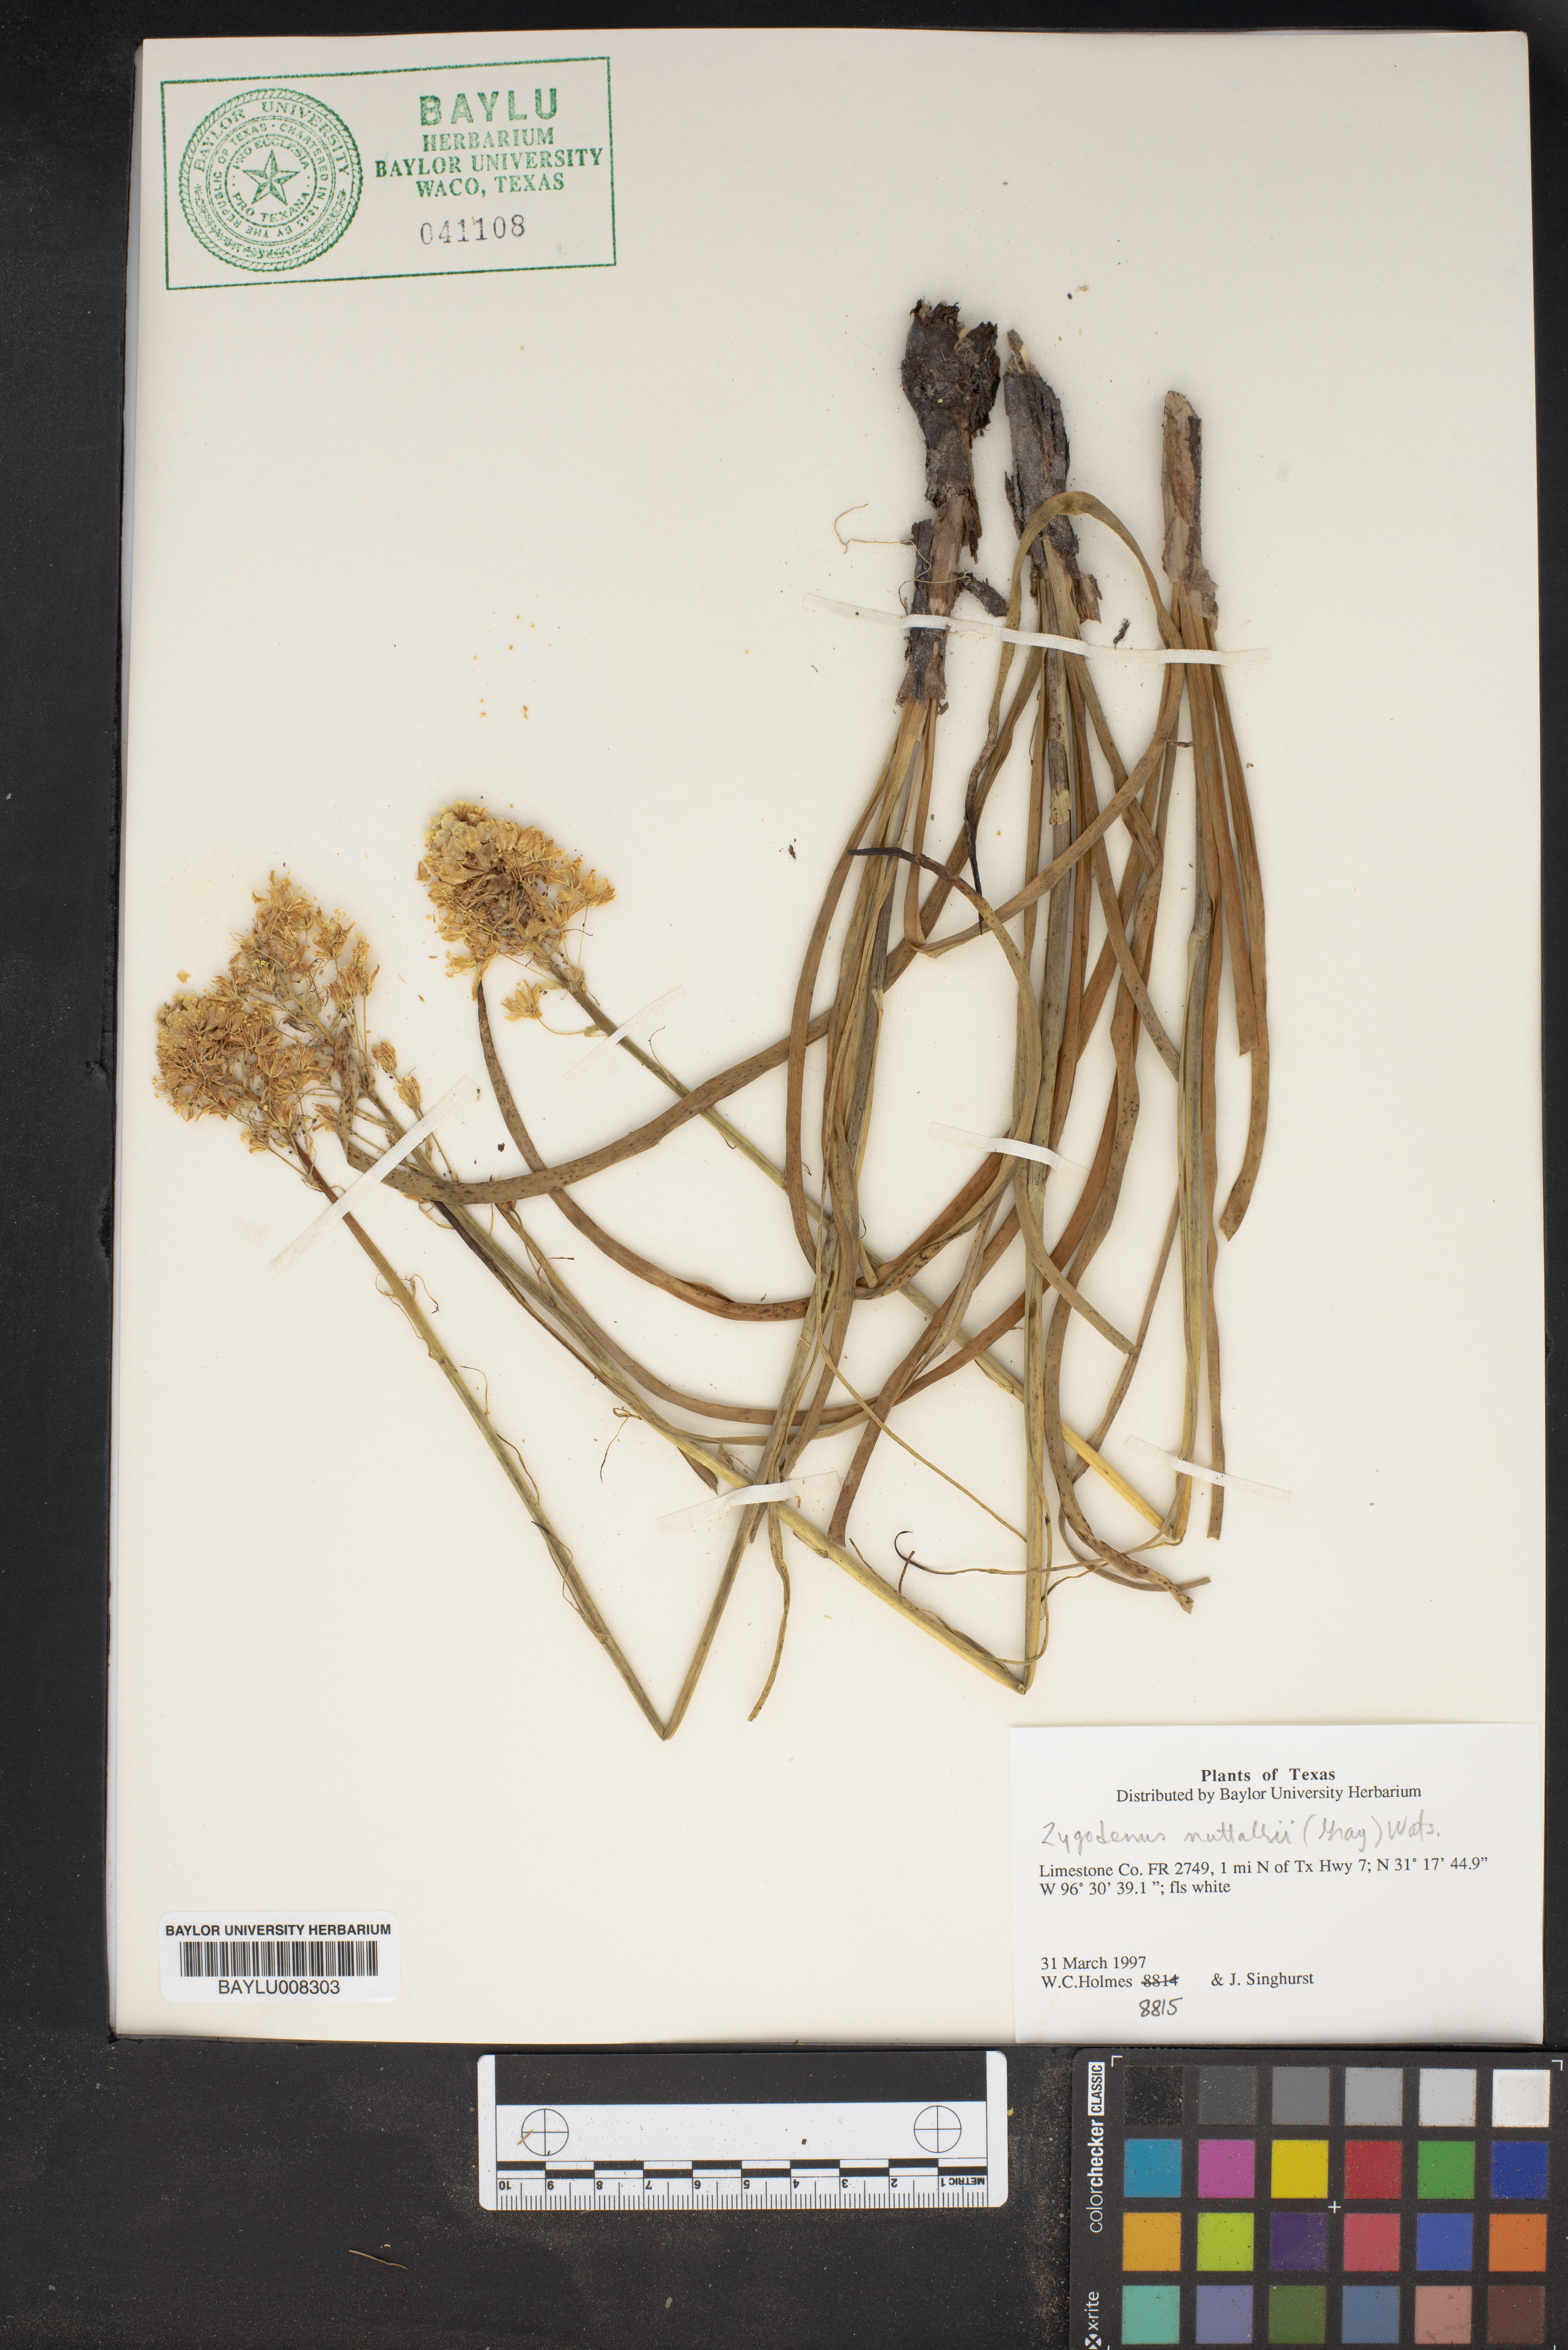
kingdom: Plantae
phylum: Tracheophyta
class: Liliopsida
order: Liliales
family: Melanthiaceae
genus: Toxicoscordion
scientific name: Toxicoscordion nuttallii
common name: Poison sego
